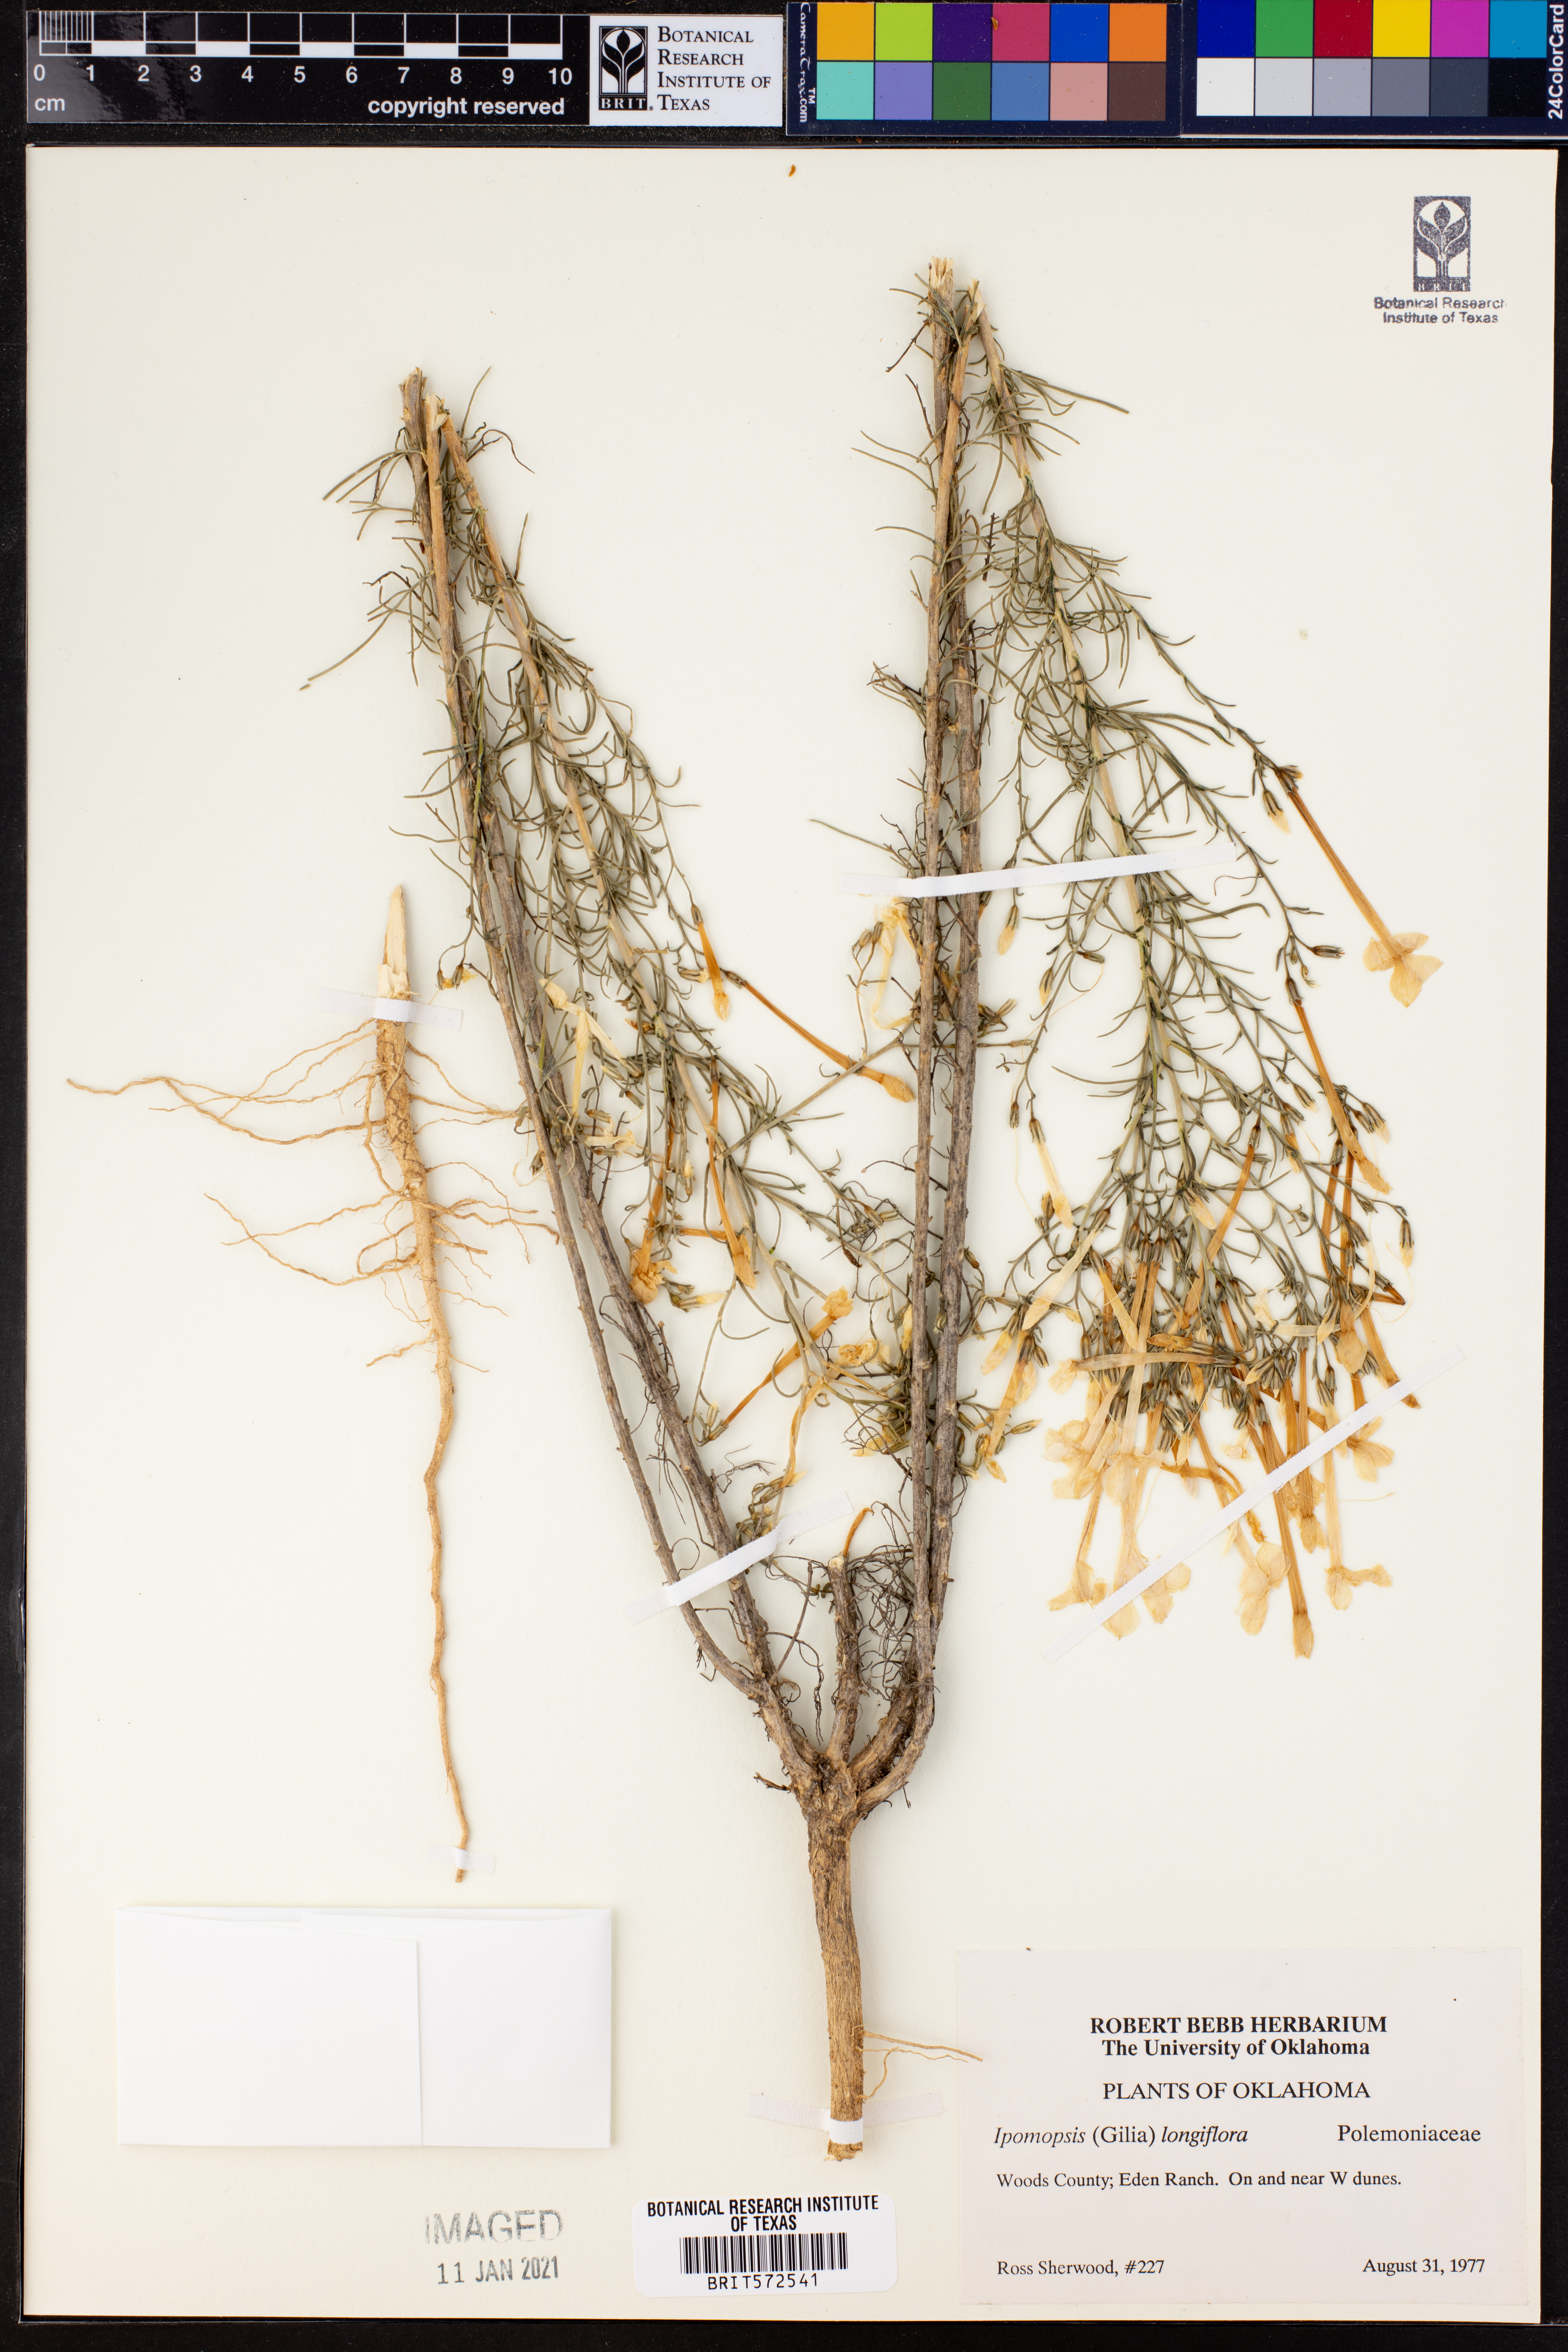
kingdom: Plantae
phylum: Tracheophyta
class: Magnoliopsida
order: Ericales
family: Polemoniaceae
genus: Ipomopsis
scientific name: Ipomopsis longiflora
